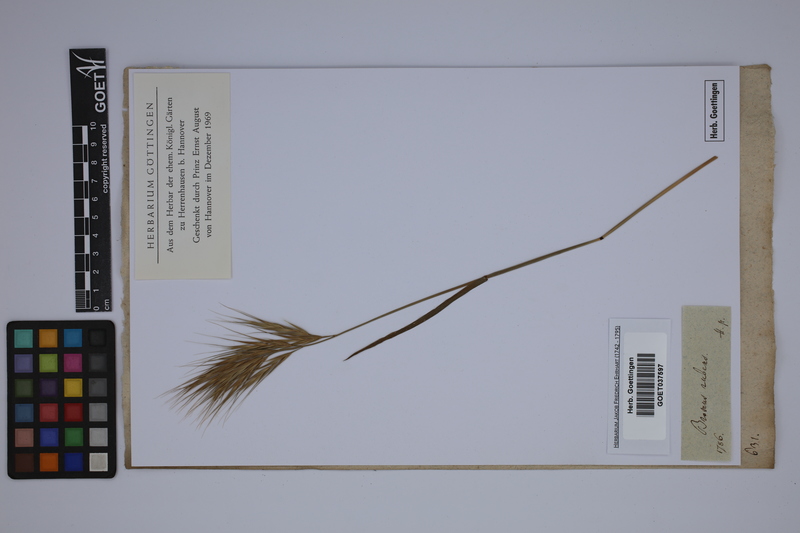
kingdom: Plantae
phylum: Tracheophyta
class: Liliopsida
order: Poales
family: Poaceae
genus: Bromus
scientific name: Bromus rubens
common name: Red brome
